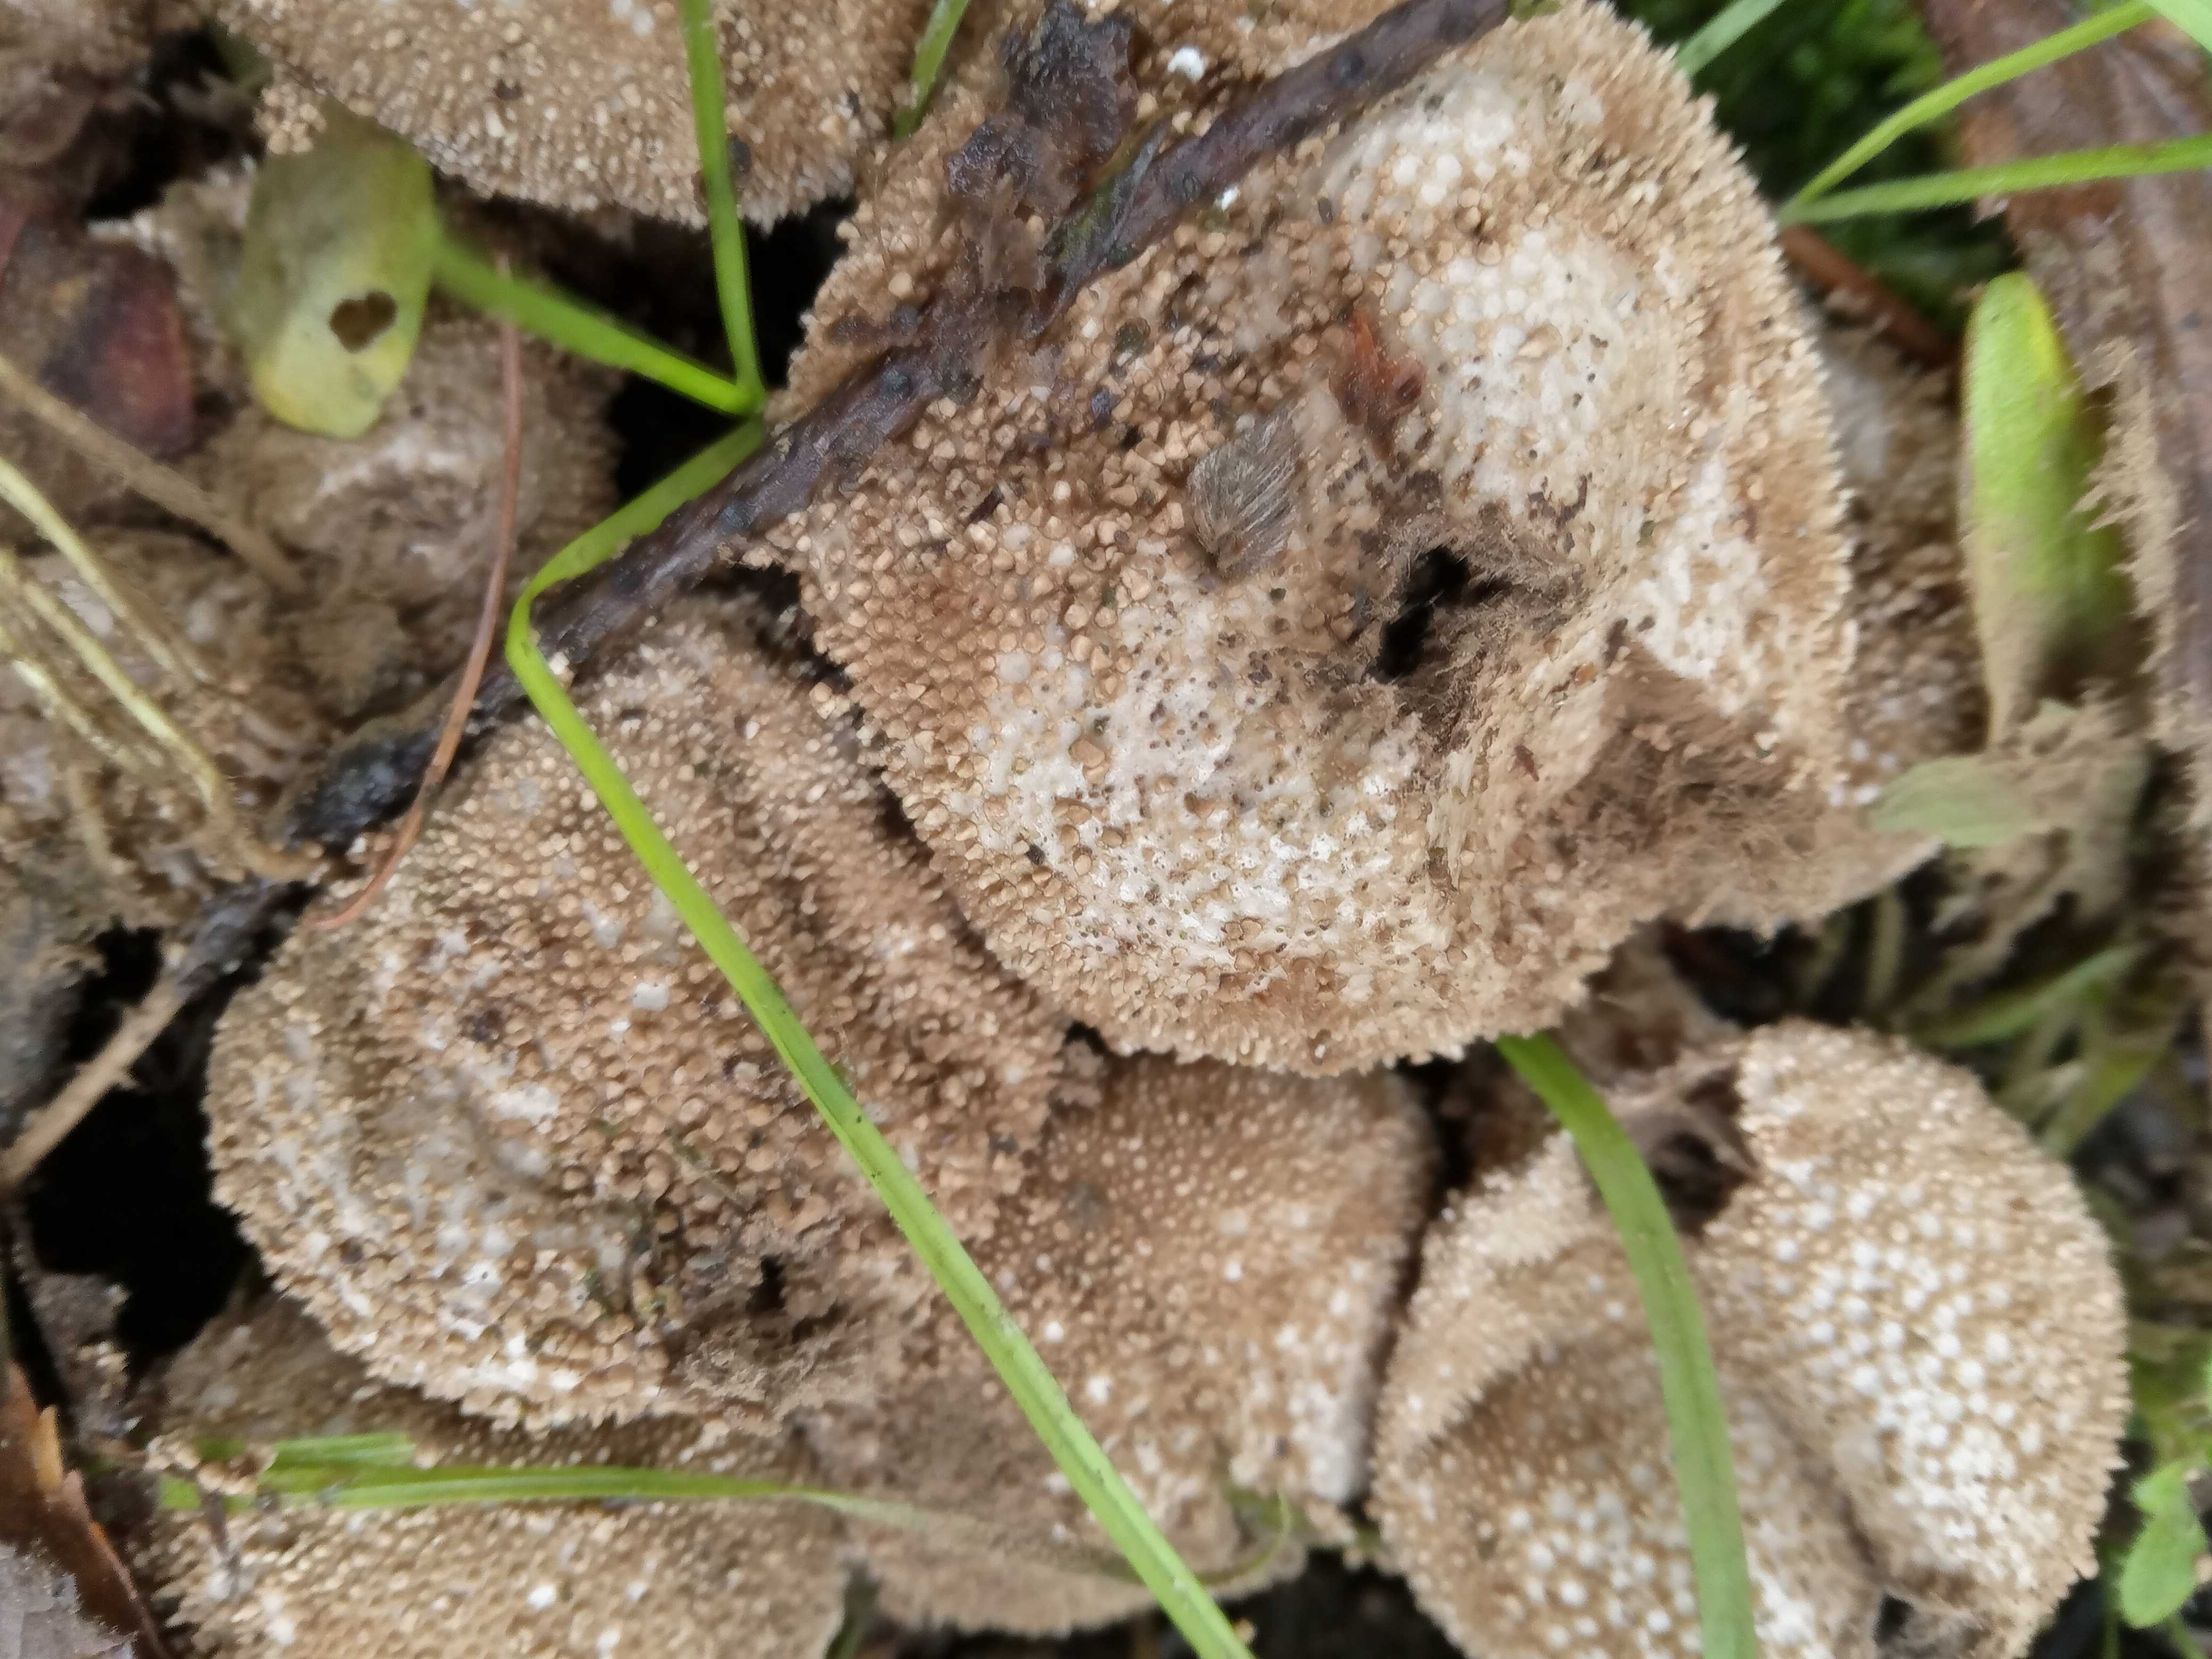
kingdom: Fungi
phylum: Basidiomycota
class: Agaricomycetes
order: Agaricales
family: Lycoperdaceae
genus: Lycoperdon
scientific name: Lycoperdon perlatum
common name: krystal-støvbold
